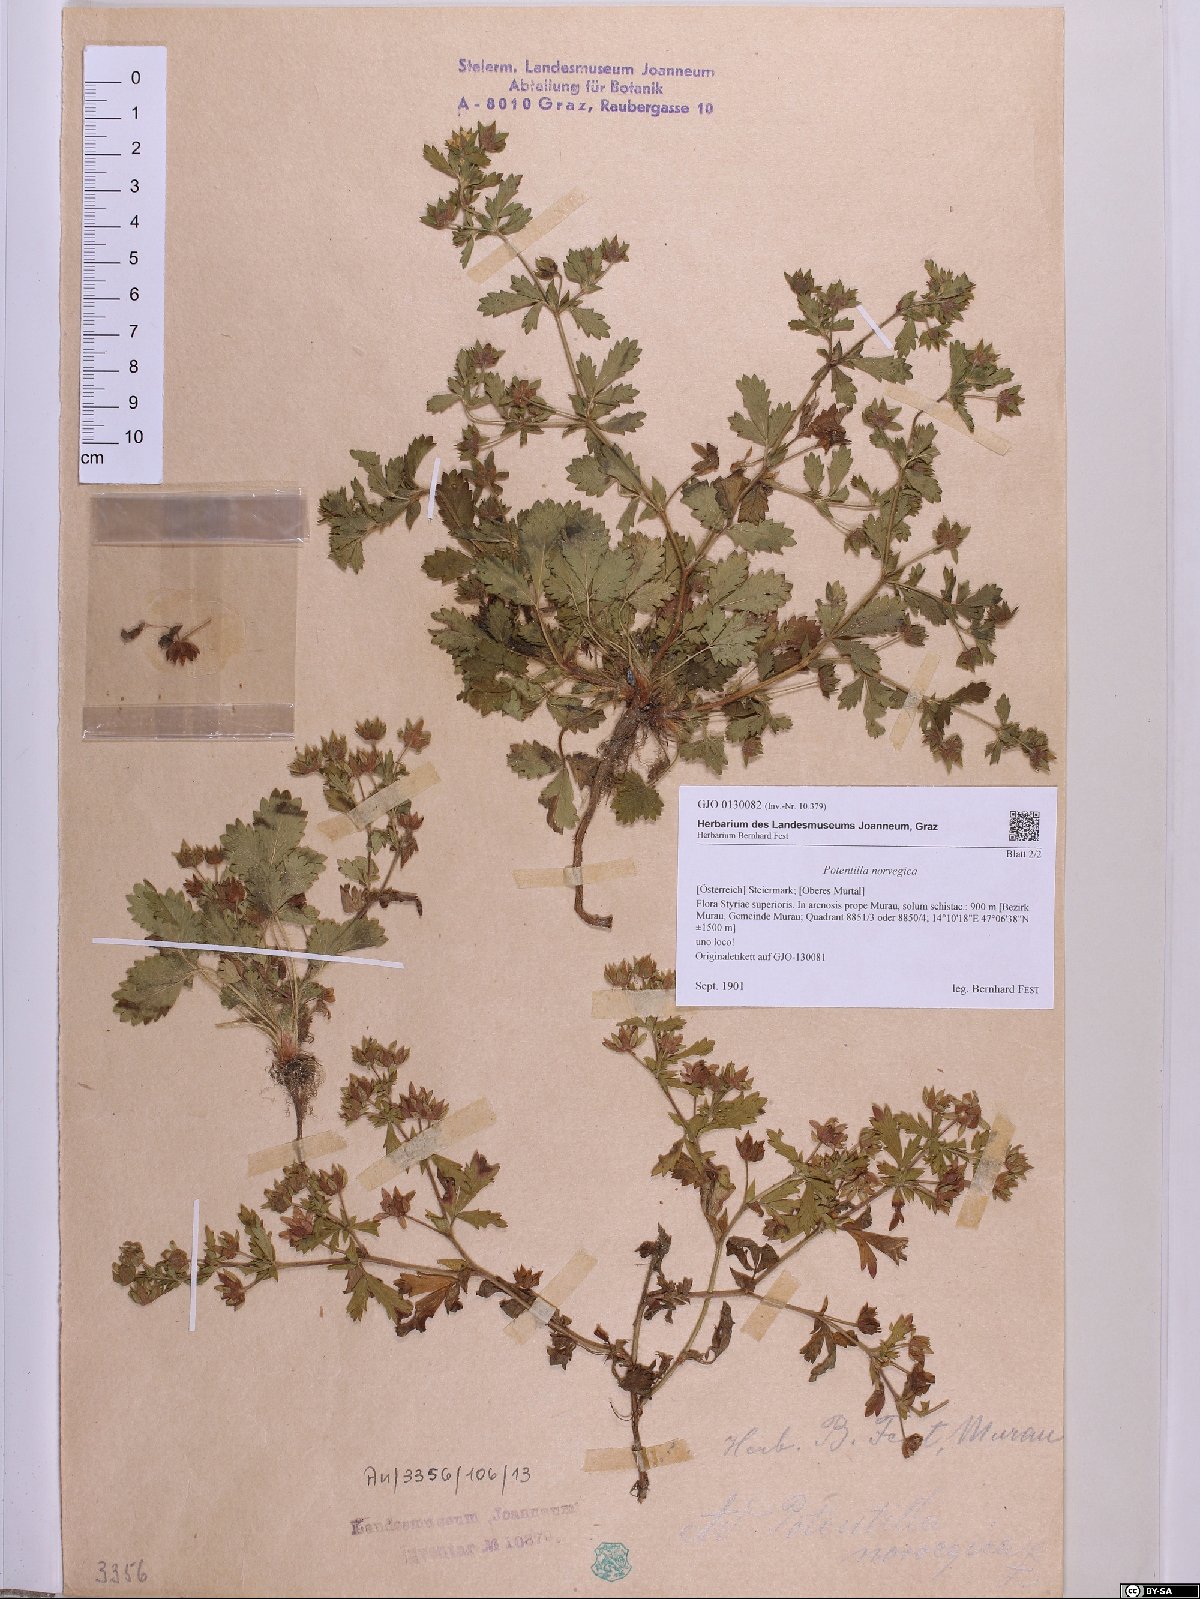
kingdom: Plantae
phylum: Tracheophyta
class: Magnoliopsida
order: Rosales
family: Rosaceae
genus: Potentilla
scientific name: Potentilla norvegica
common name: Ternate-leaved cinquefoil
